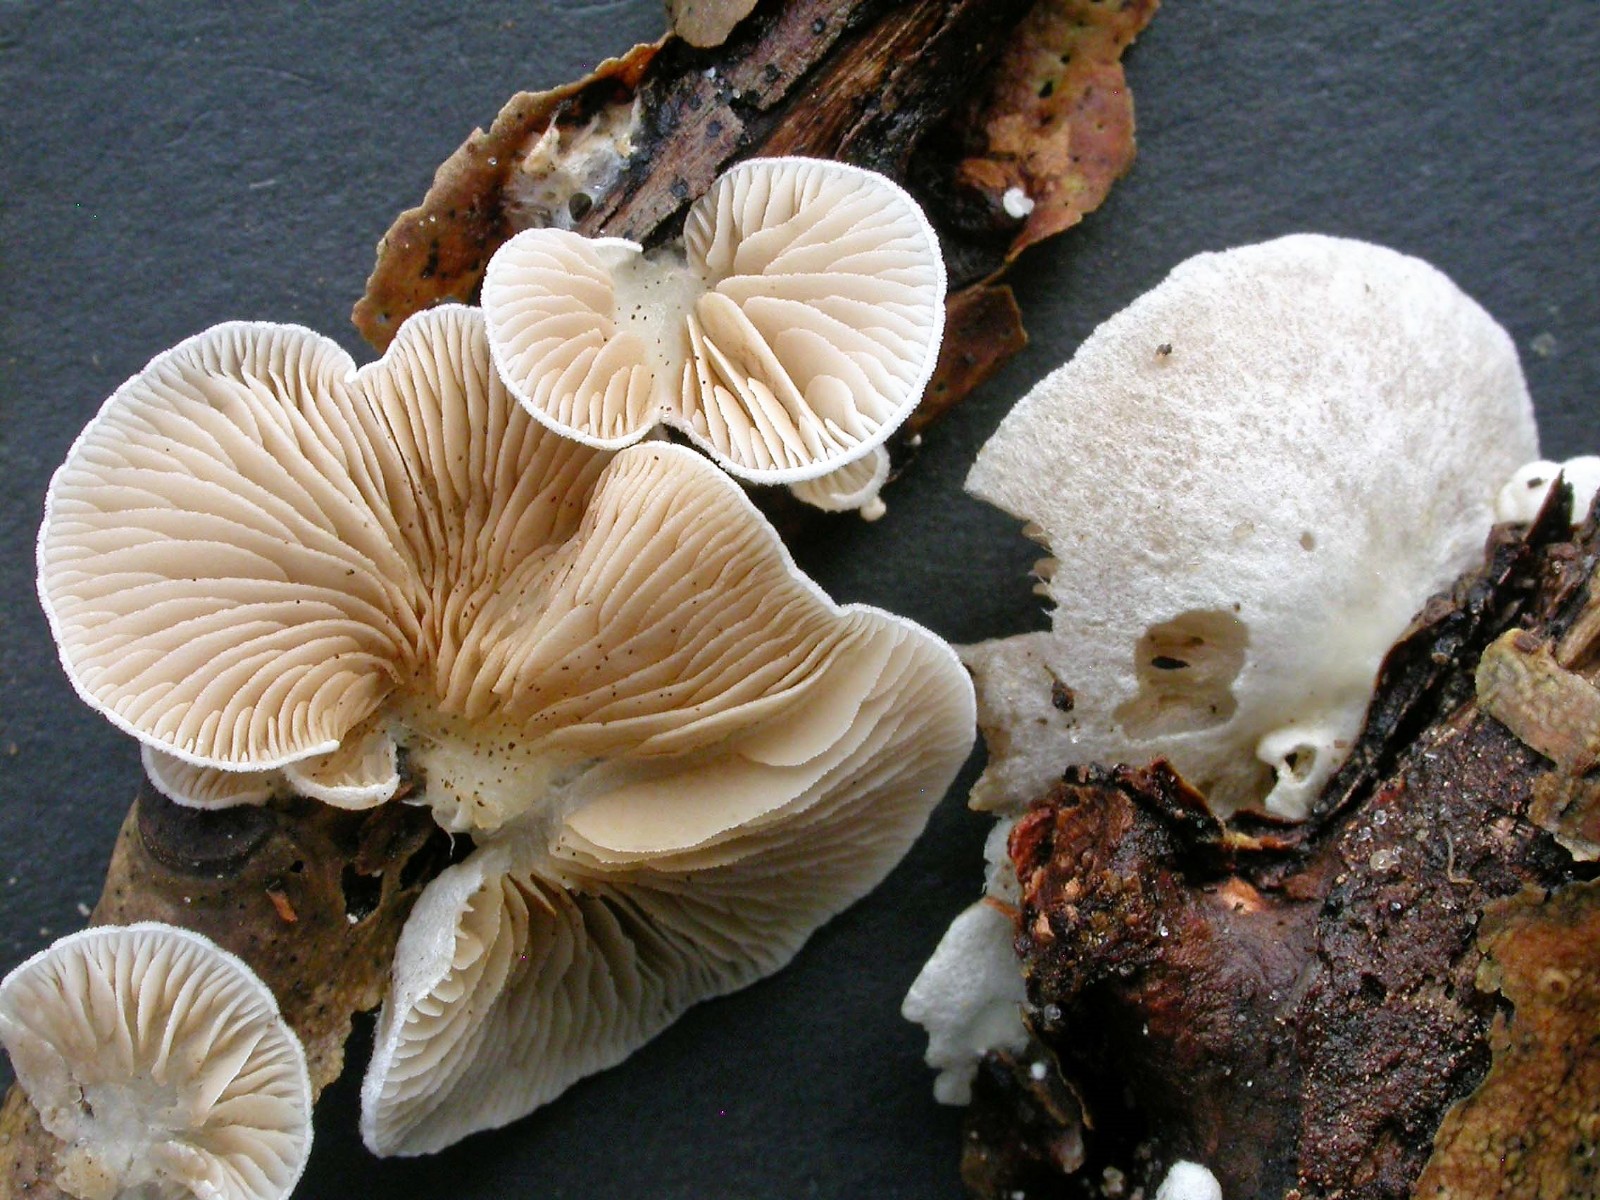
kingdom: Fungi
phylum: Basidiomycota
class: Agaricomycetes
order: Agaricales
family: Crepidotaceae
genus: Crepidotus
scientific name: Crepidotus caspari
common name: Lundells muslingesvamp
